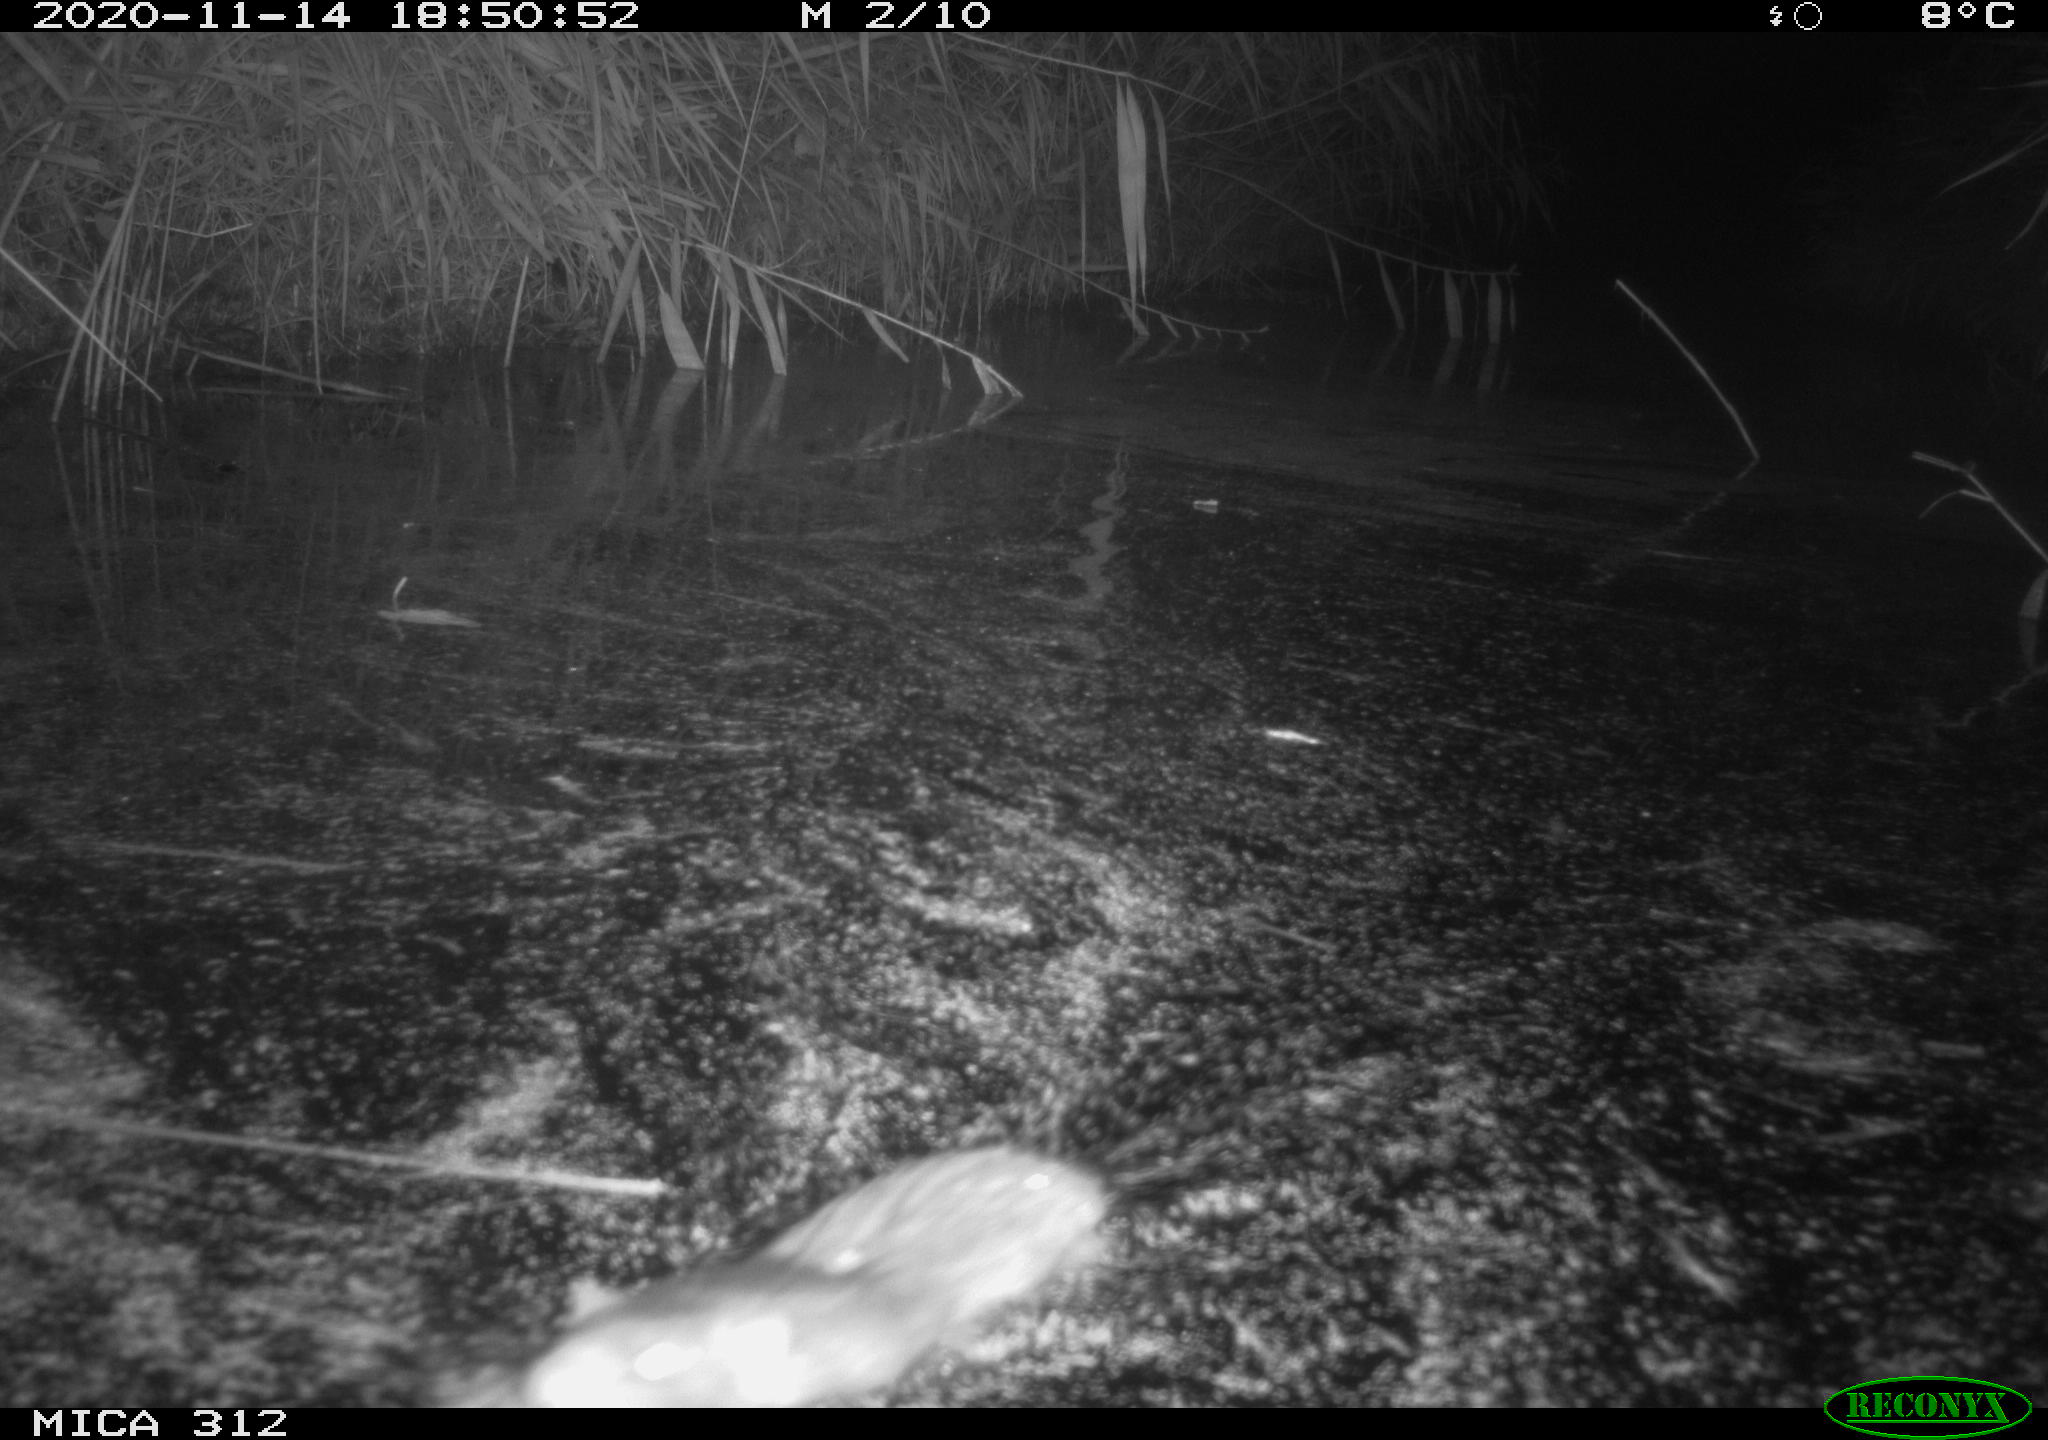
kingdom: Animalia
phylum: Chordata
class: Mammalia
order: Rodentia
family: Cricetidae
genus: Ondatra
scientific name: Ondatra zibethicus
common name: Muskrat
